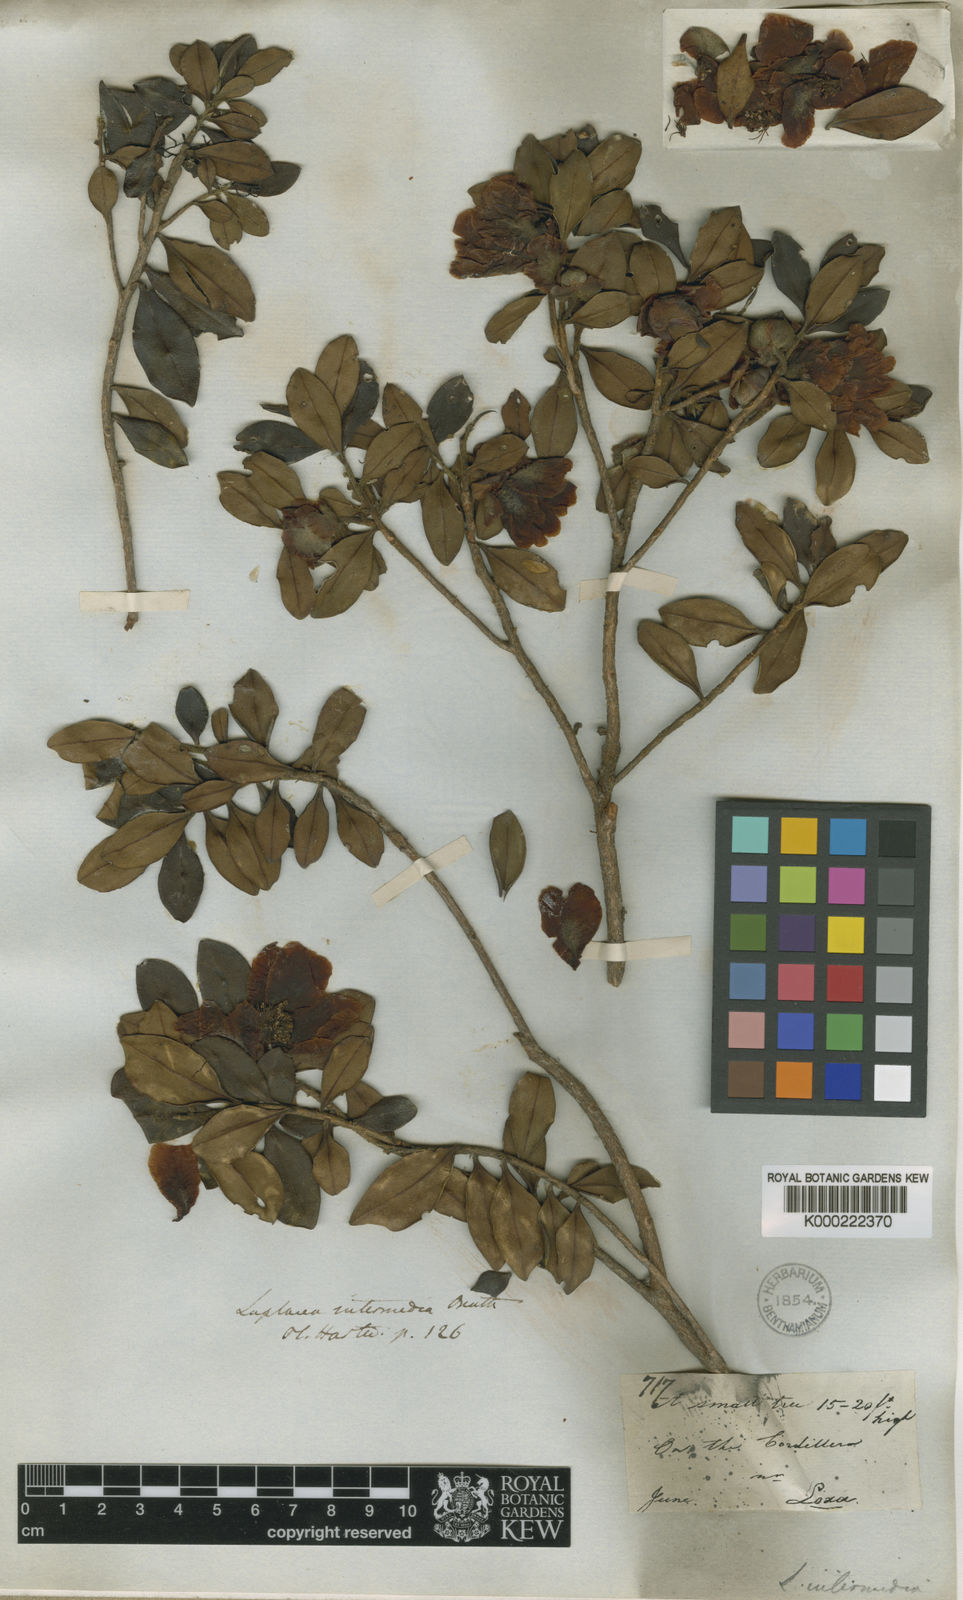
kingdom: Plantae
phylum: Tracheophyta
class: Magnoliopsida
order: Ericales
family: Theaceae
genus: Gordonia
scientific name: Gordonia fruticosa
